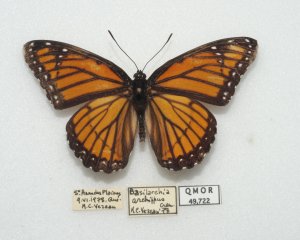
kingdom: Animalia
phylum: Arthropoda
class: Insecta
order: Lepidoptera
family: Nymphalidae
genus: Limenitis
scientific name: Limenitis archippus
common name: Viceroy
